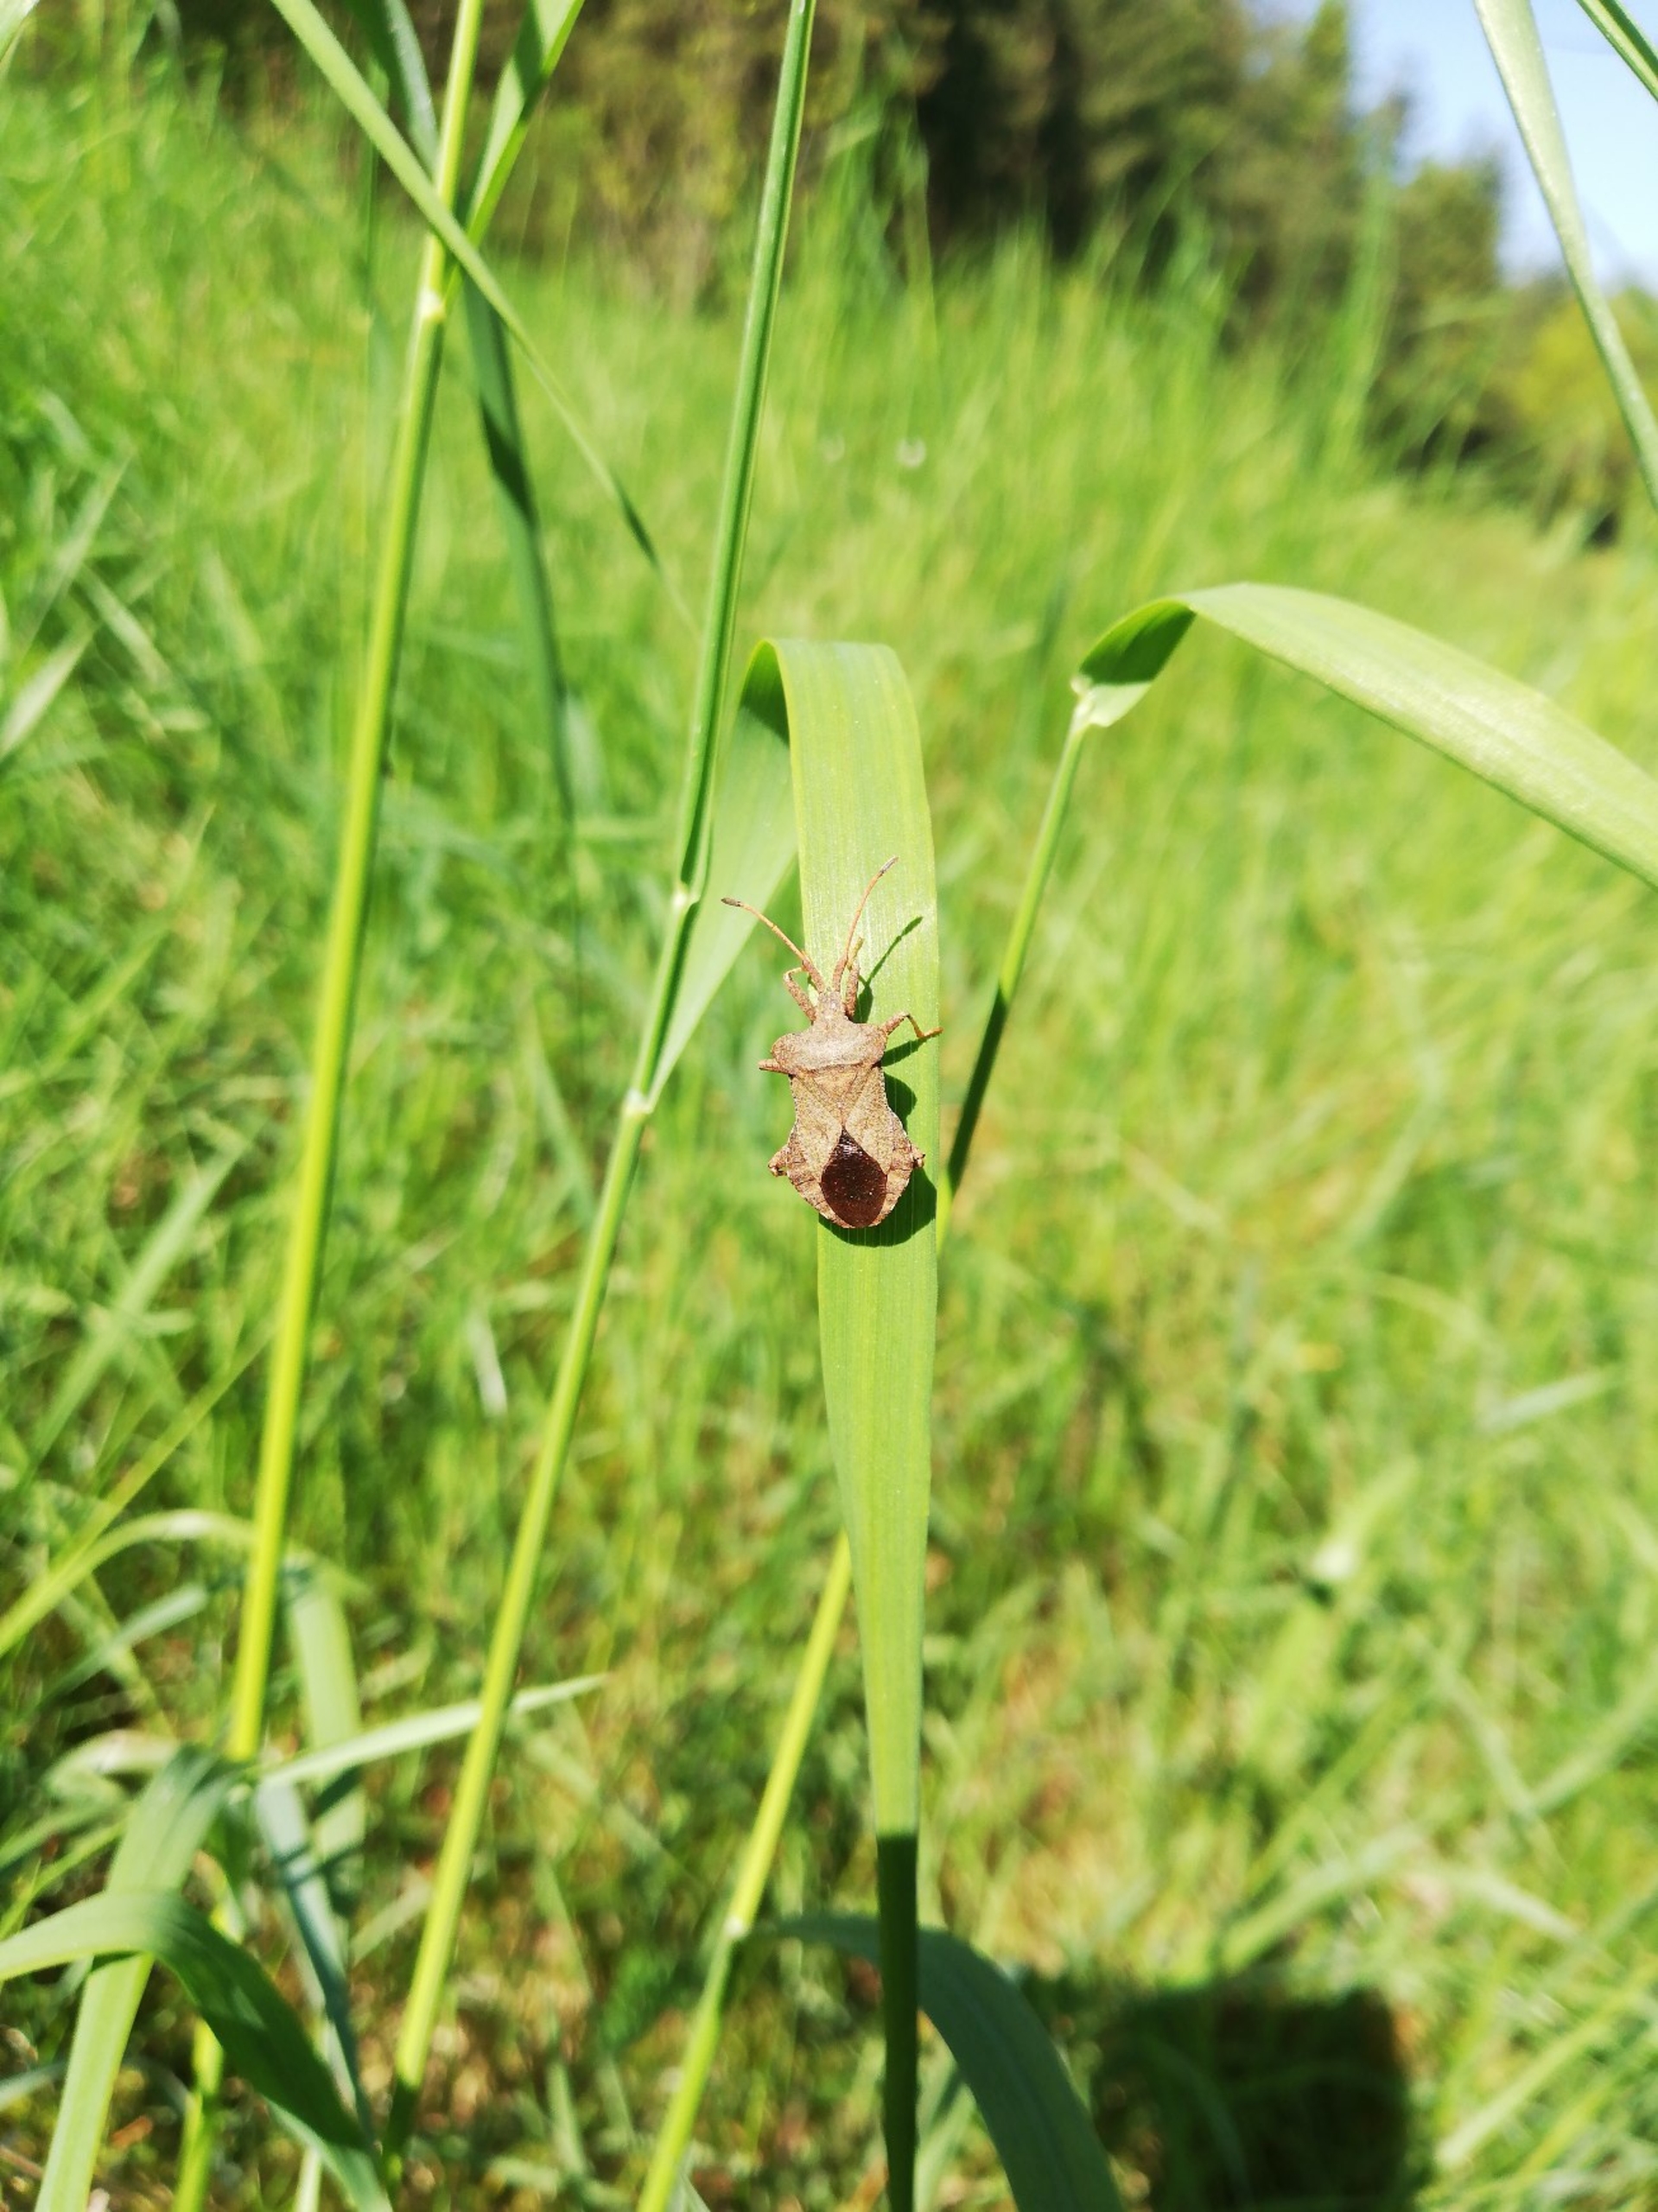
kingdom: Animalia
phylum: Arthropoda
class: Insecta
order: Hemiptera
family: Coreidae
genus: Coreus
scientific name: Coreus marginatus
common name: Skræppetæge
